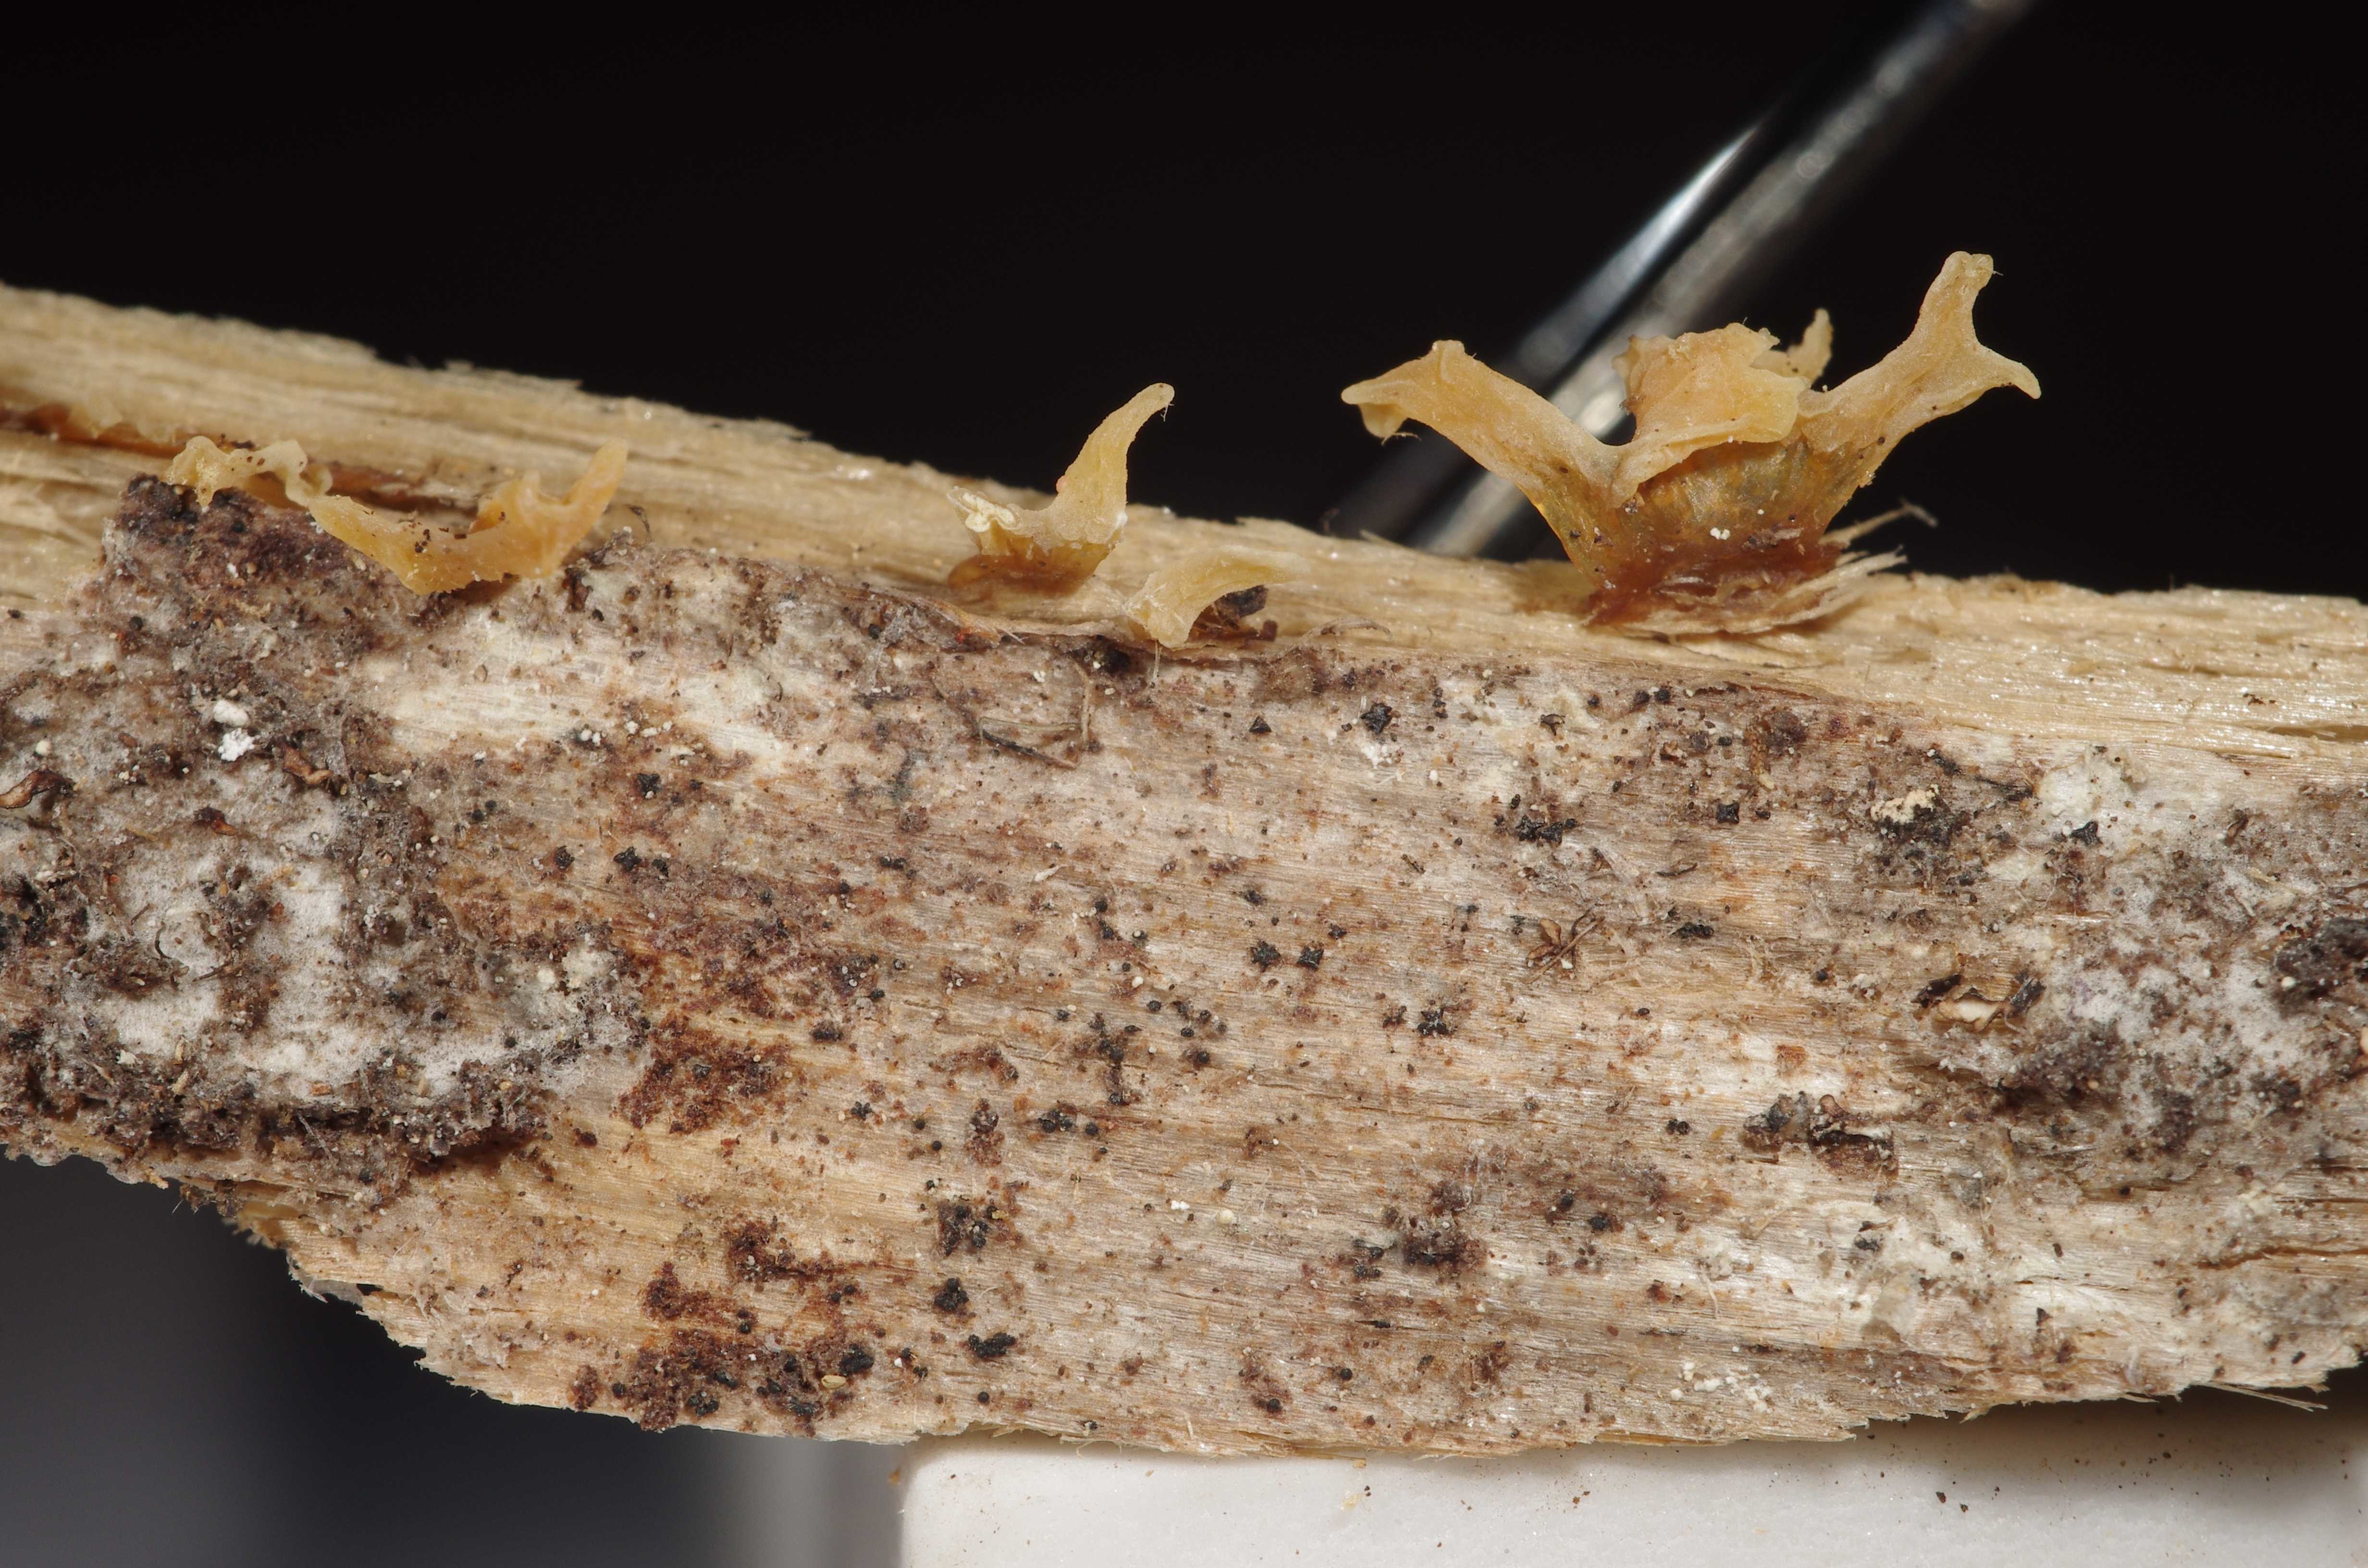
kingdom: Fungi
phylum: Basidiomycota
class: Dacrymycetes
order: Dacrymycetales
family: Dacrymycetaceae
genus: Calocera
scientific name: Calocera furcata
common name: Forked stagshorn
